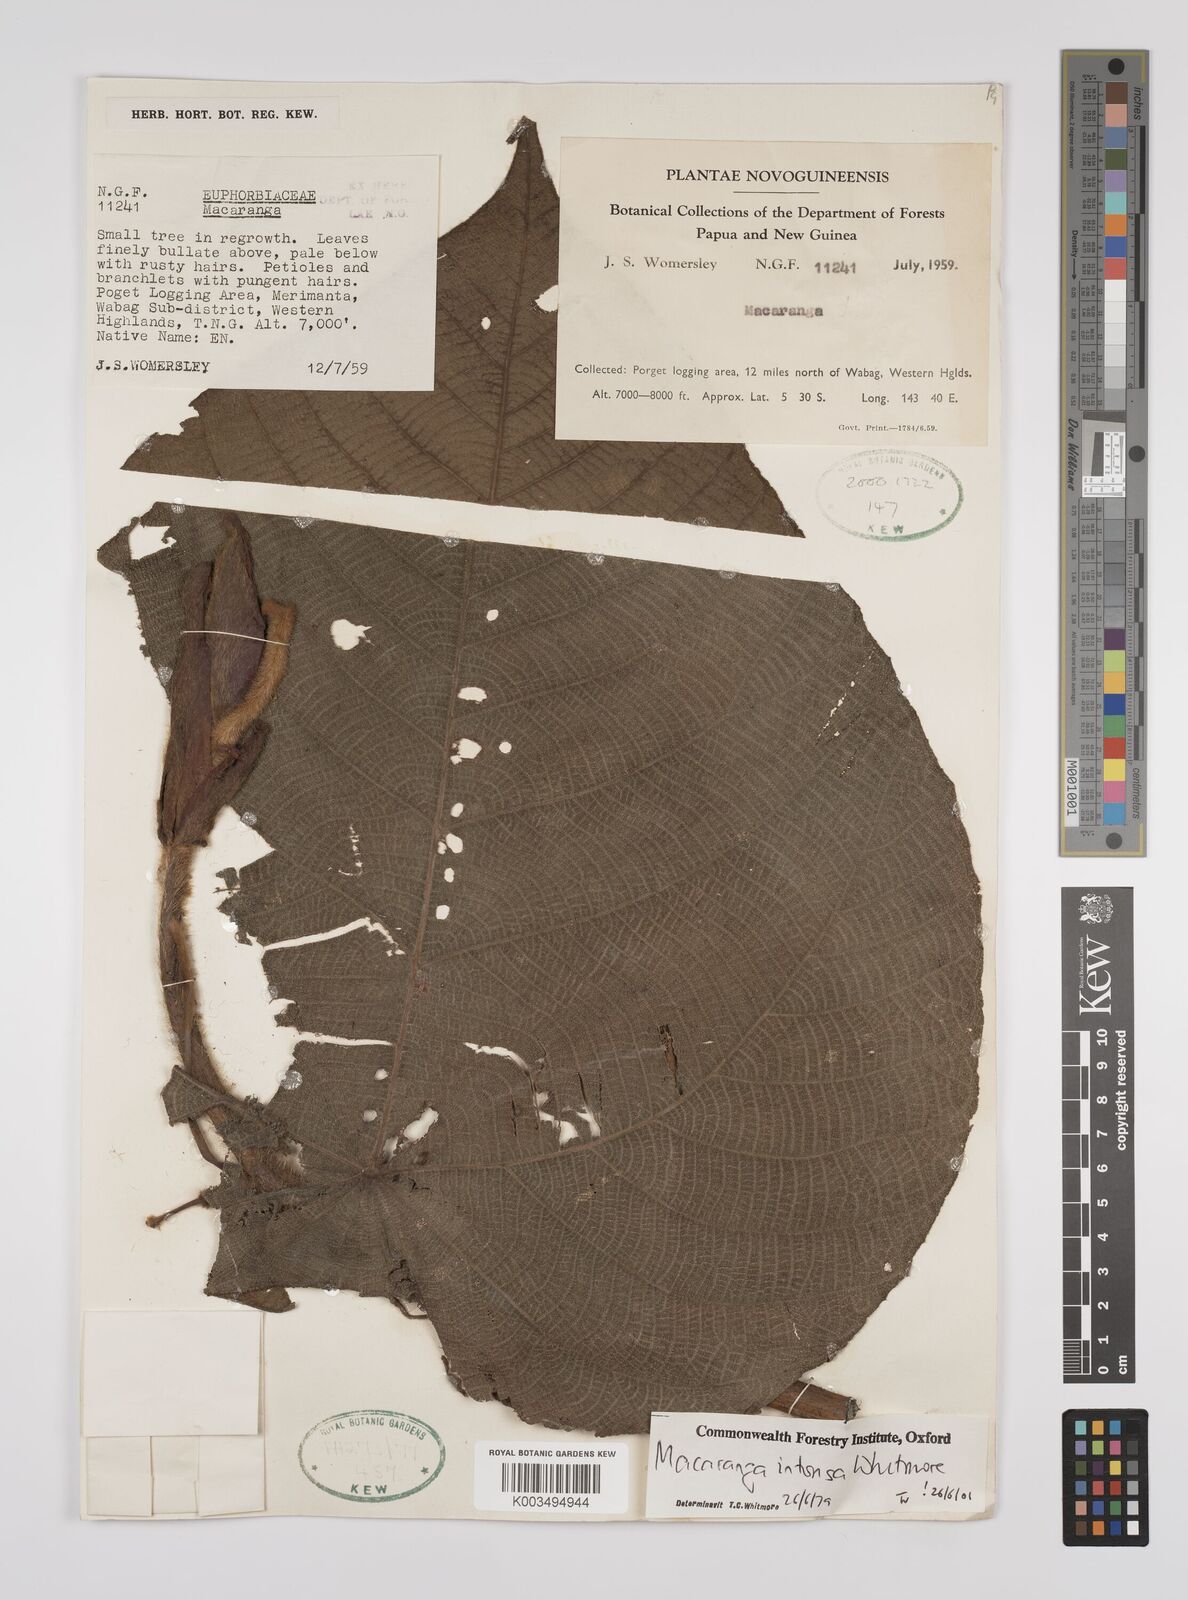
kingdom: Plantae
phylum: Tracheophyta
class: Magnoliopsida
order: Malpighiales
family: Euphorbiaceae
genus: Macaranga
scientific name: Macaranga intonsa
